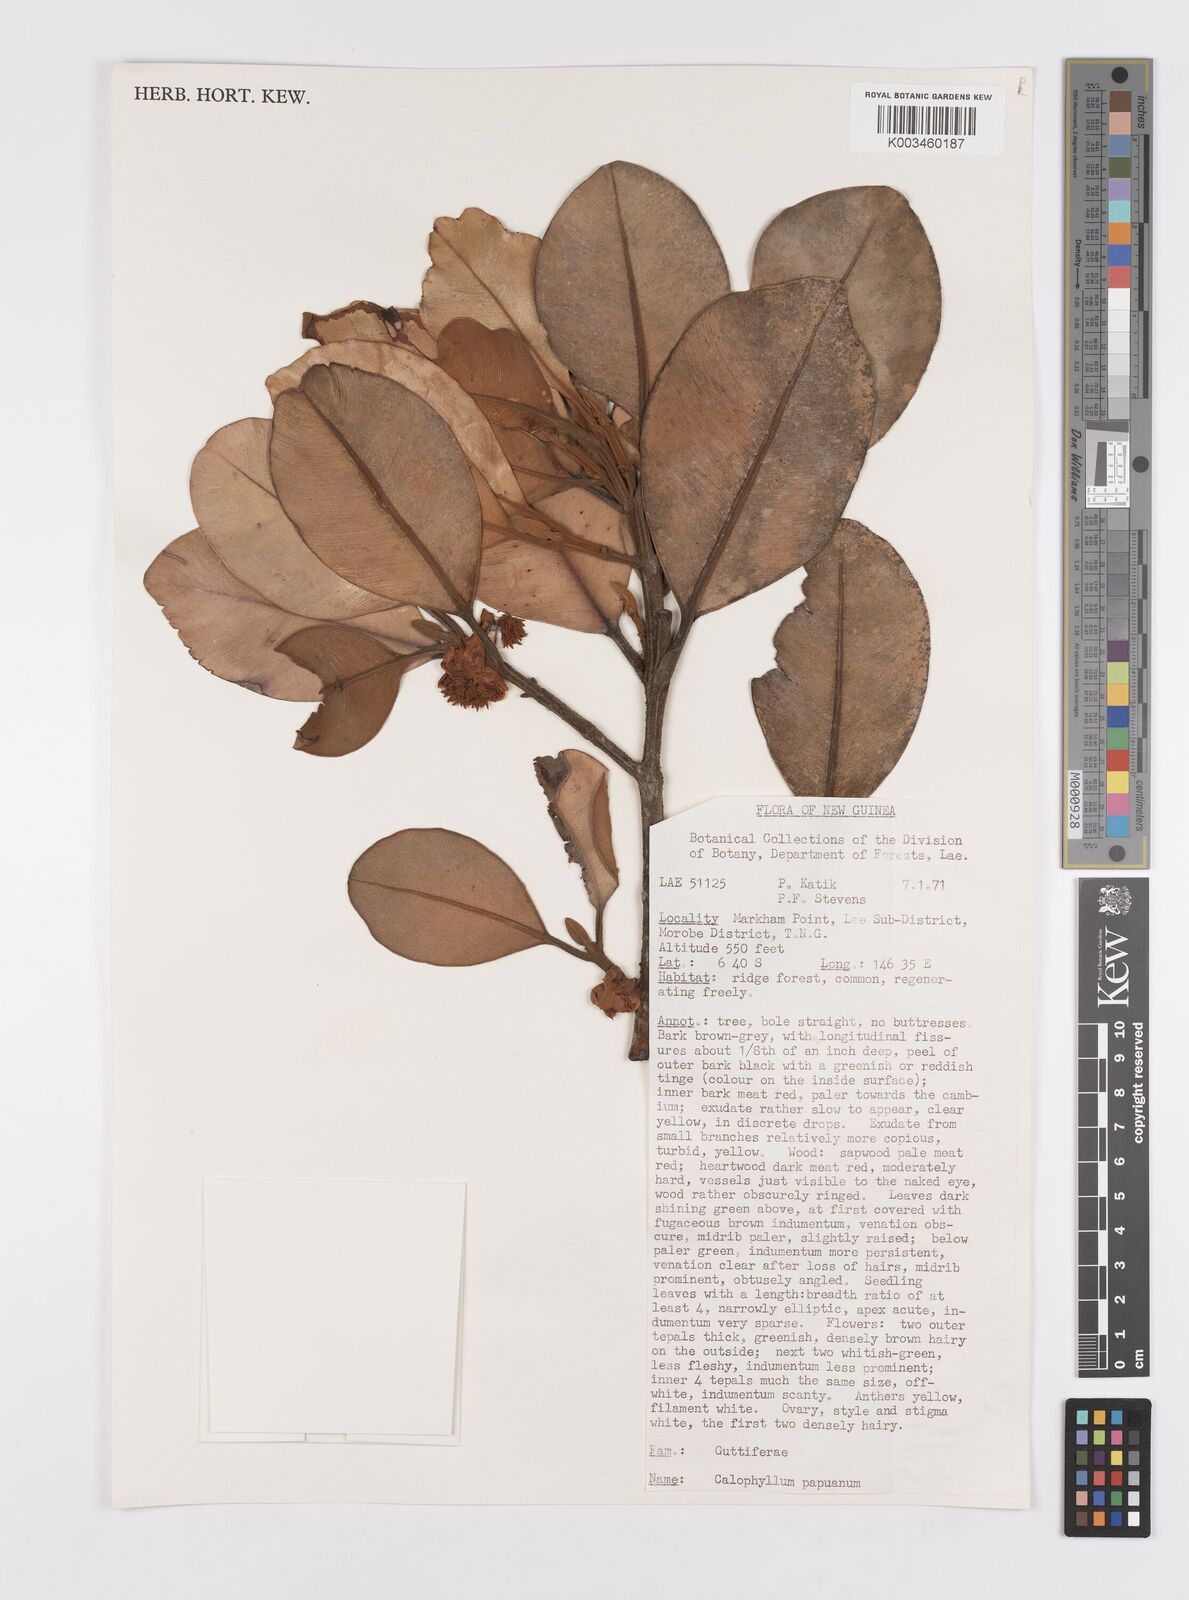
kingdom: Plantae
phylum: Tracheophyta
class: Magnoliopsida
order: Malpighiales
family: Calophyllaceae
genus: Calophyllum
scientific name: Calophyllum papuanum
